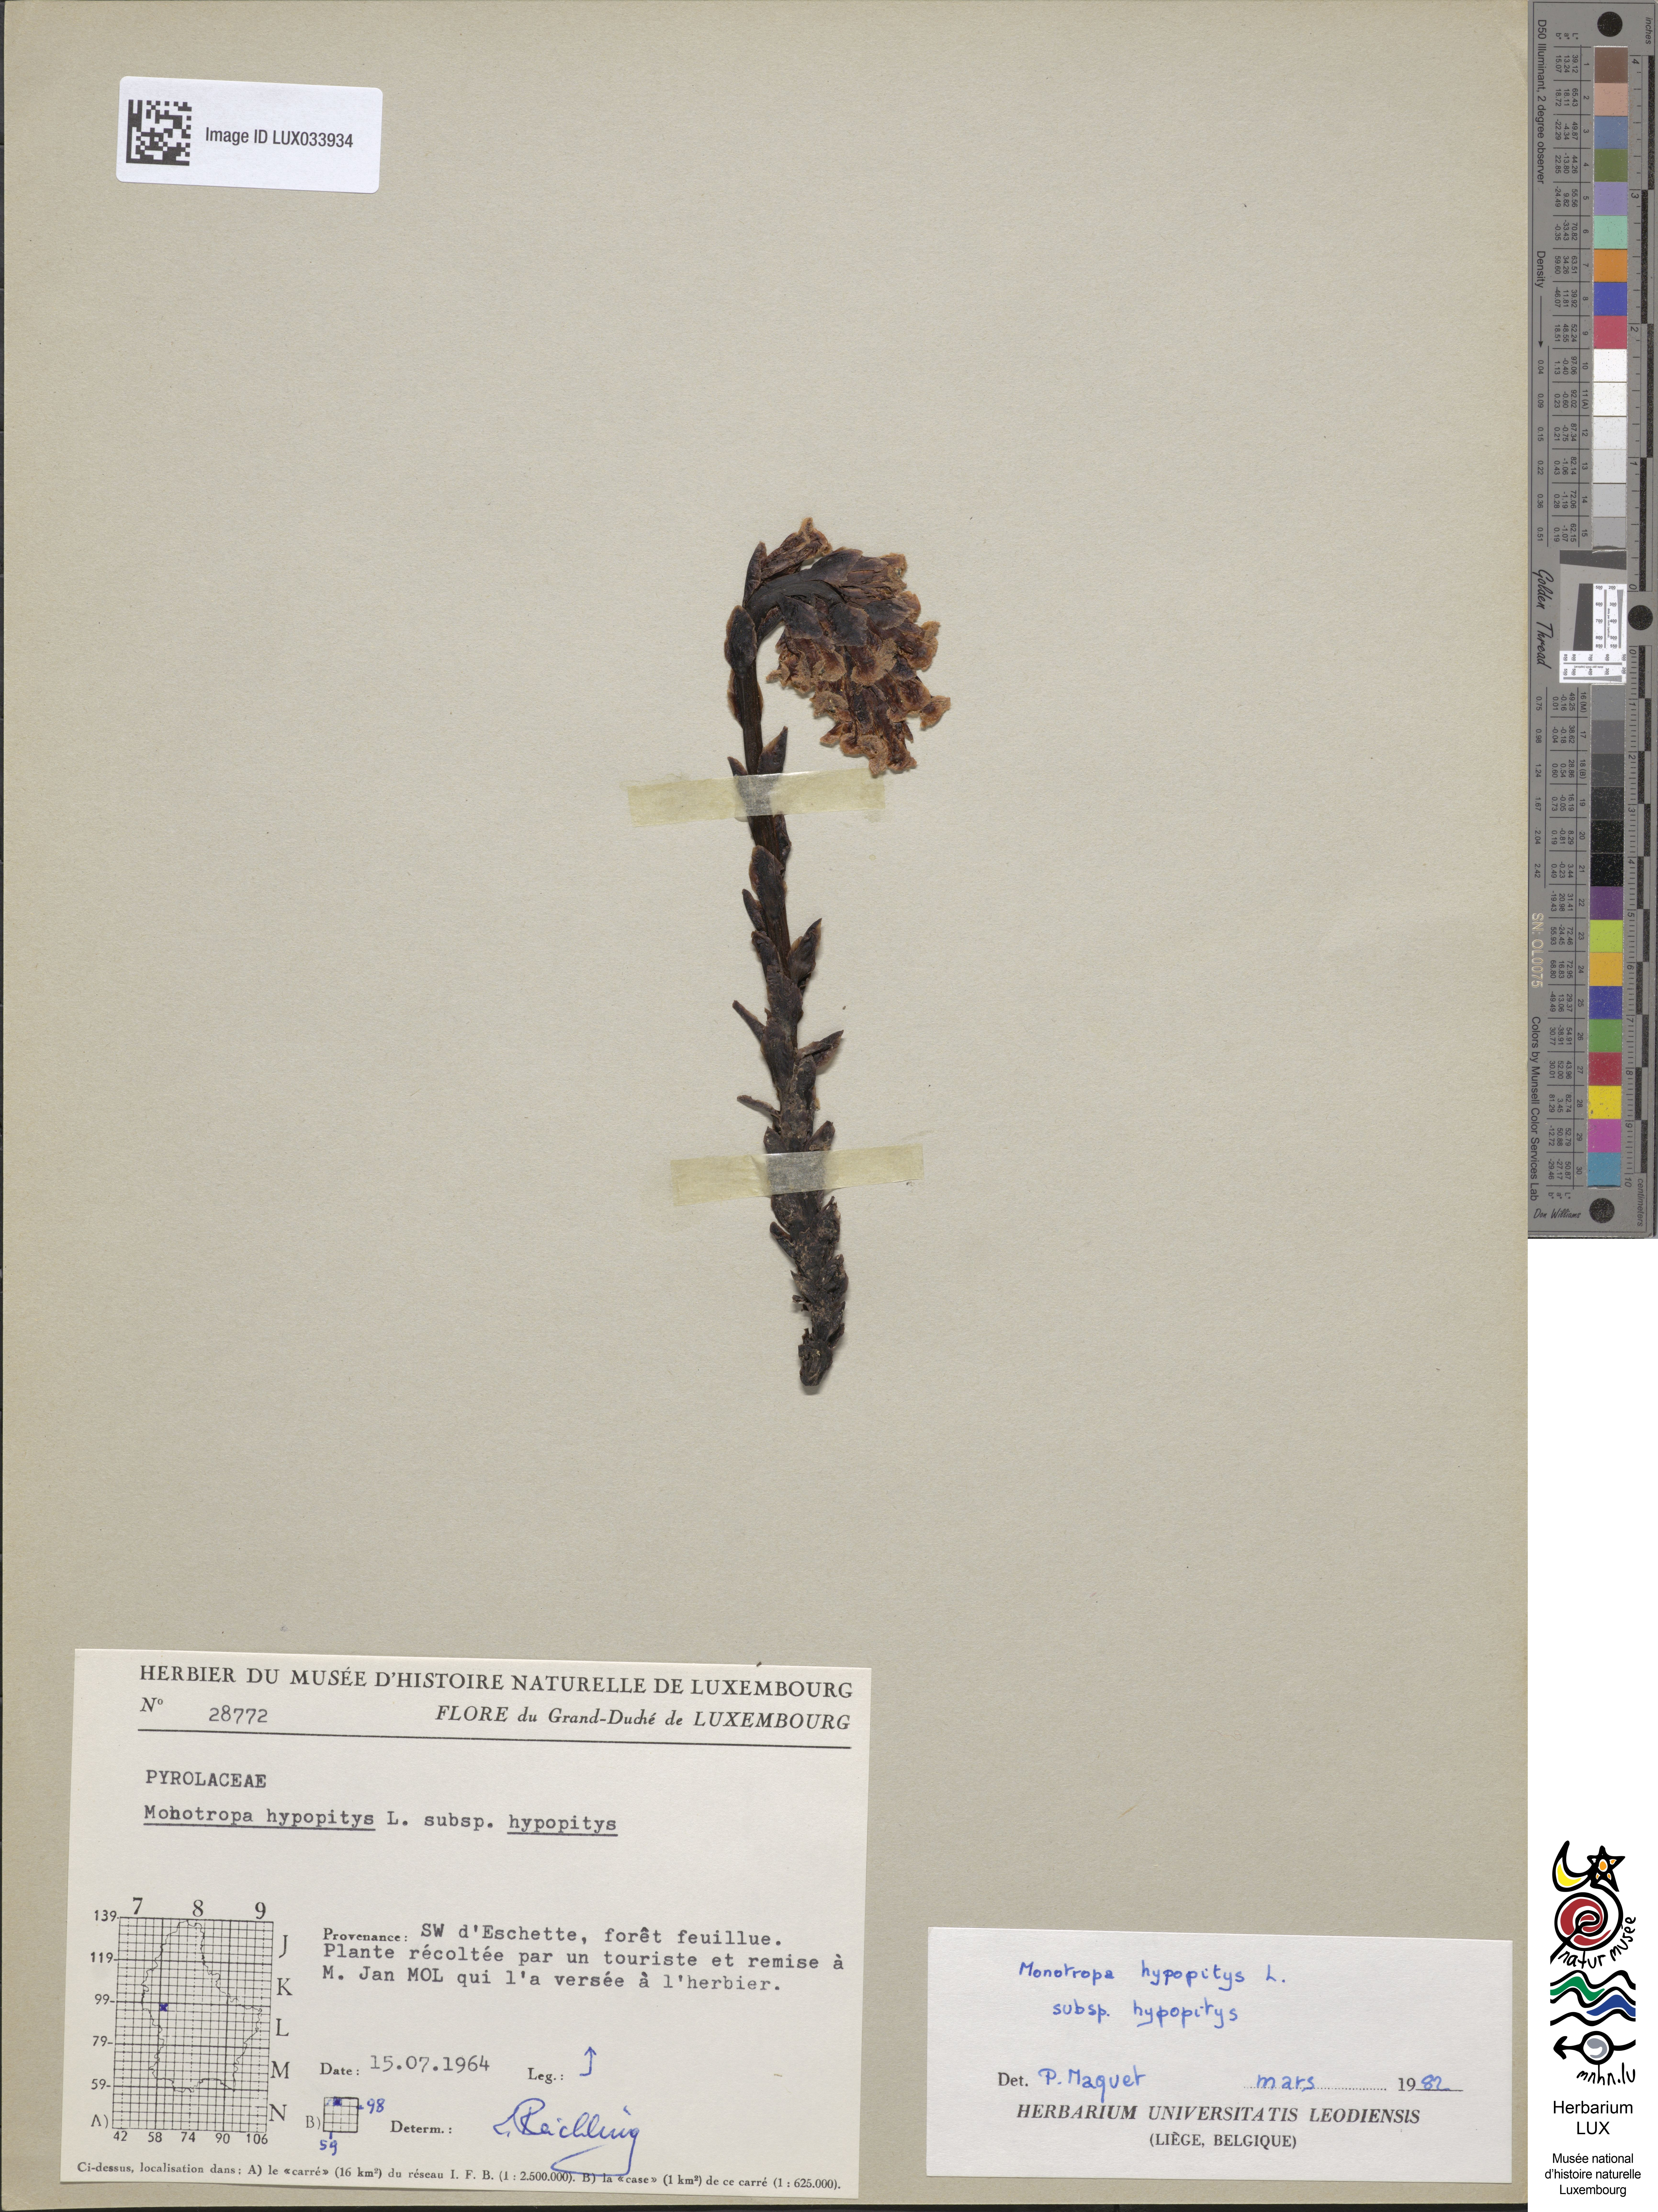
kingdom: Plantae
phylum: Tracheophyta
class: Magnoliopsida
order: Ericales
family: Ericaceae
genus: Hypopitys
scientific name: Hypopitys monotropa
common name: Yellow bird's-nest
